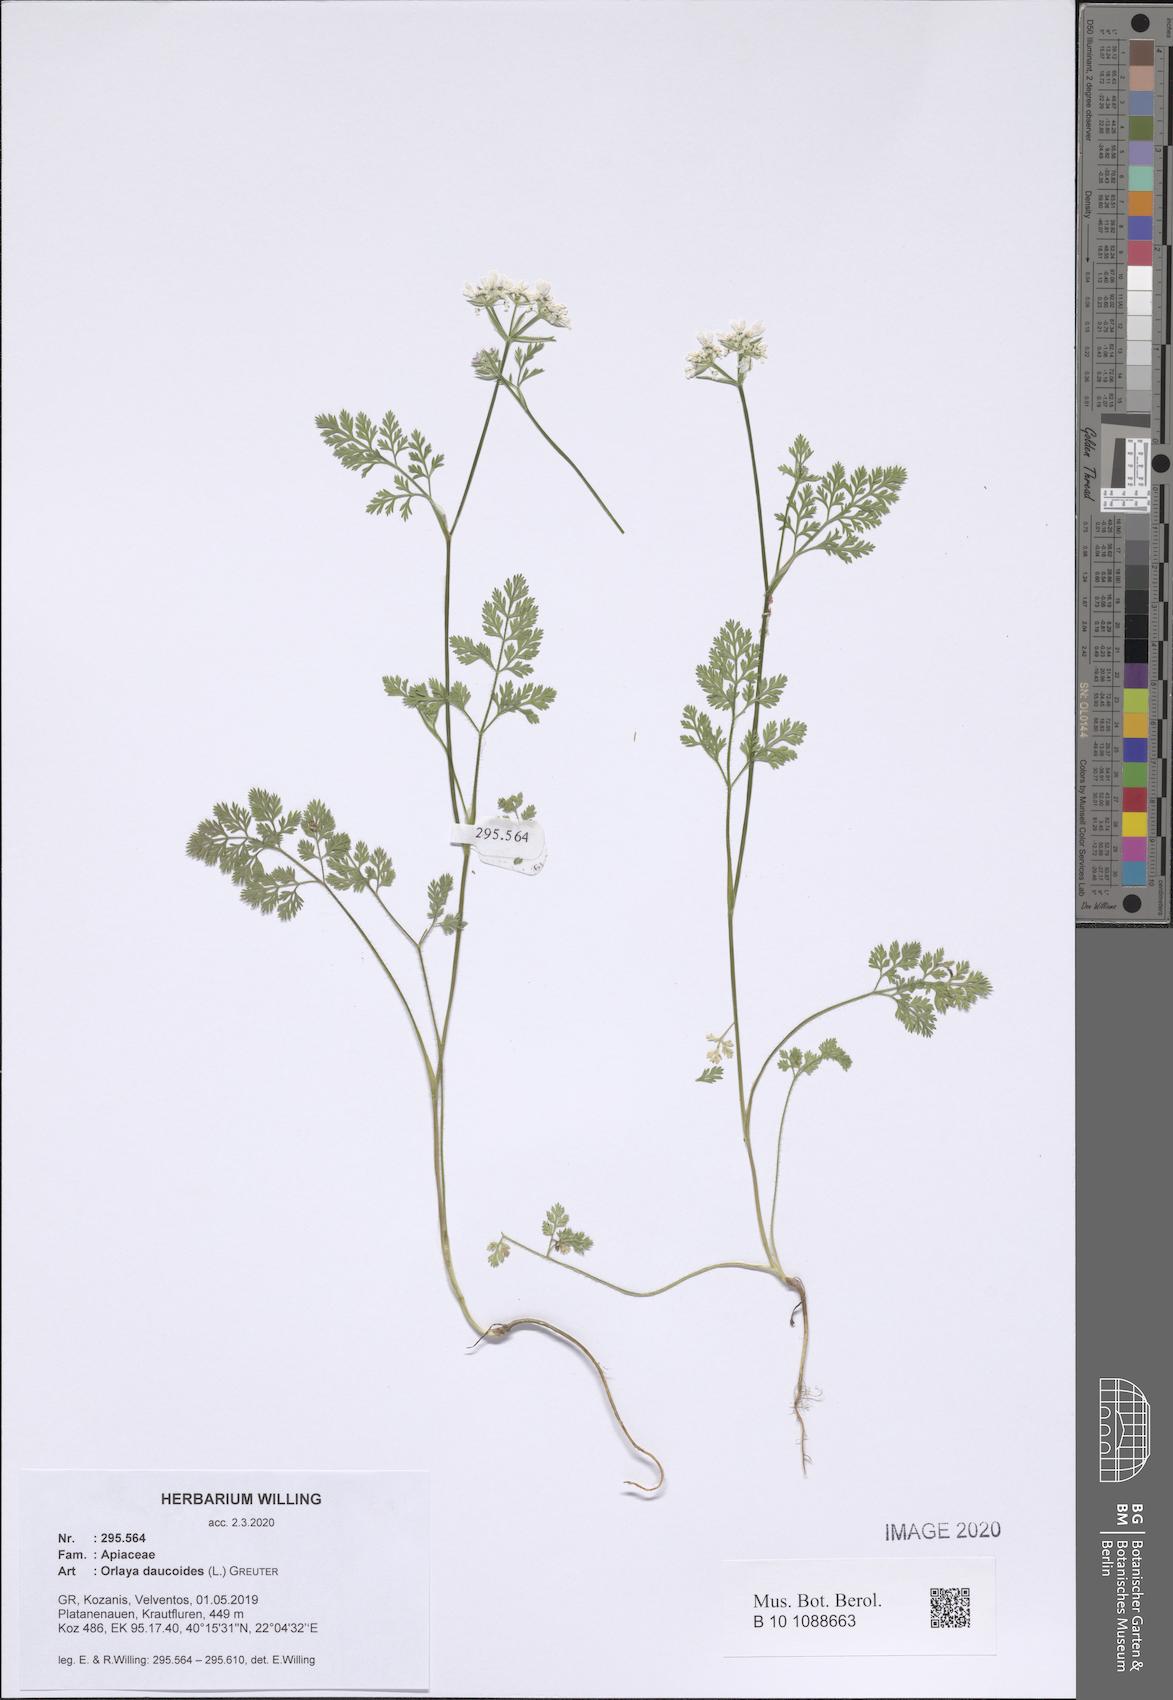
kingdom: Plantae
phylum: Tracheophyta
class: Magnoliopsida
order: Apiales
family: Apiaceae
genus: Orlaya
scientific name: Orlaya daucoides
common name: Flat-fruit orlaya
